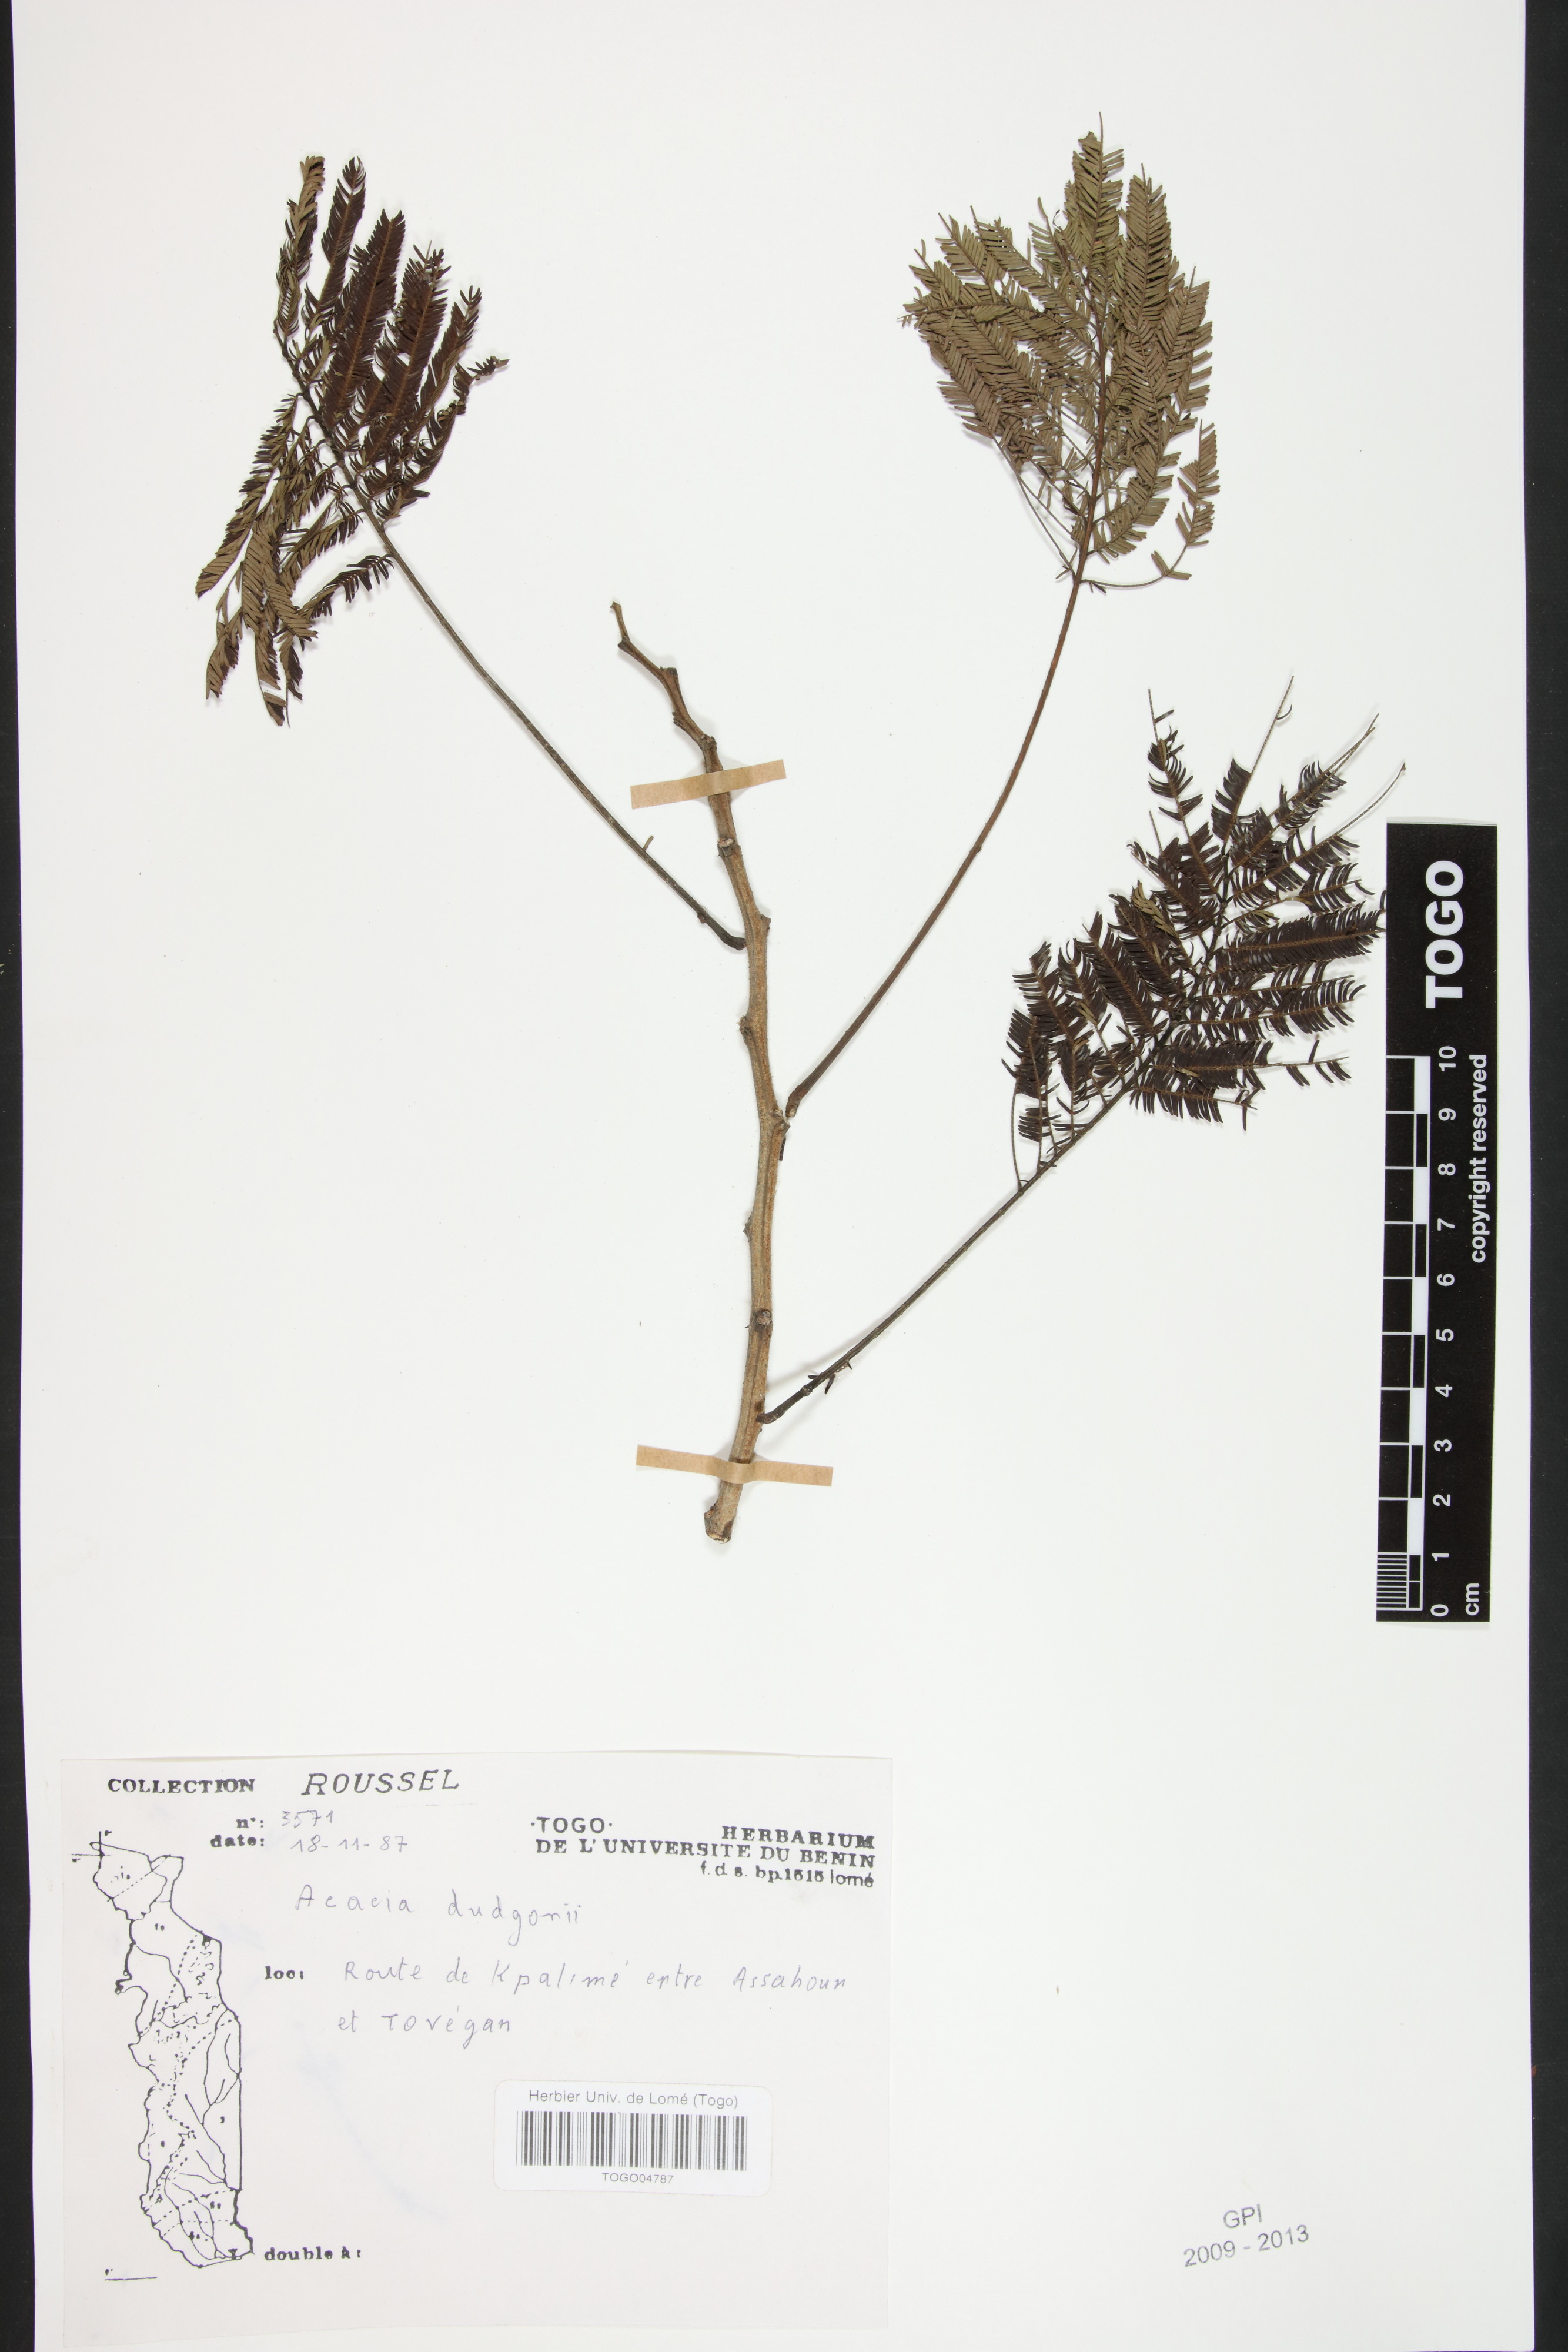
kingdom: Plantae
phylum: Tracheophyta
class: Magnoliopsida
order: Fabales
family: Fabaceae
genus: Senegalia
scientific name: Senegalia dudgeonii
